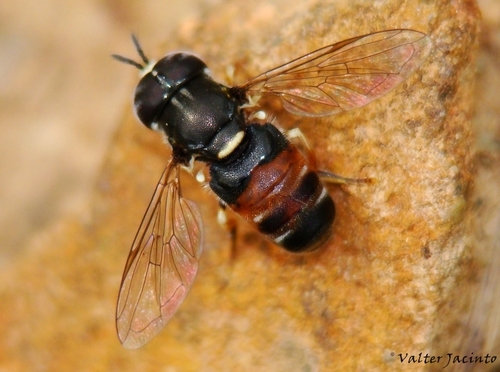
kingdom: Animalia
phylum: Arthropoda
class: Insecta
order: Diptera
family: Syrphidae
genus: Paragus
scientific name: Paragus bicolor
